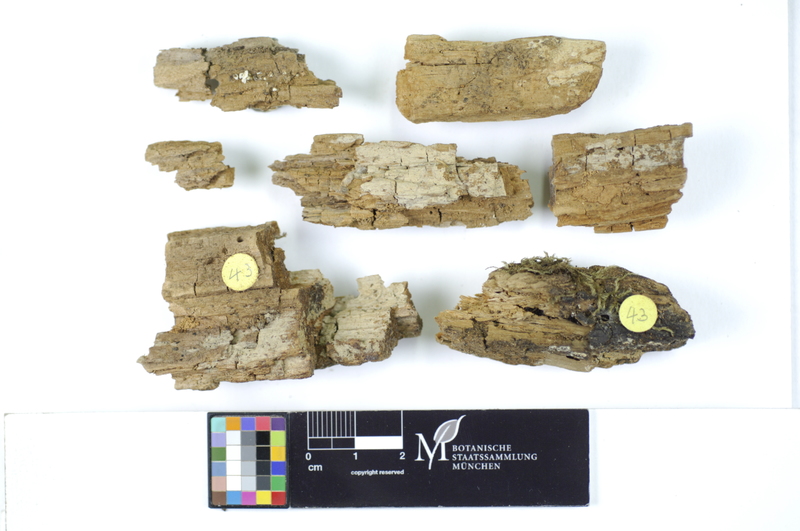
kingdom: Fungi
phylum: Basidiomycota
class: Agaricomycetes
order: Hymenochaetales
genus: Kurtia
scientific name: Kurtia argillacea
